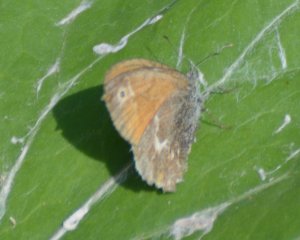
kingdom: Animalia
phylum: Arthropoda
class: Insecta
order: Lepidoptera
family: Nymphalidae
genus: Coenonympha
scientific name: Coenonympha tullia
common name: Large Heath
